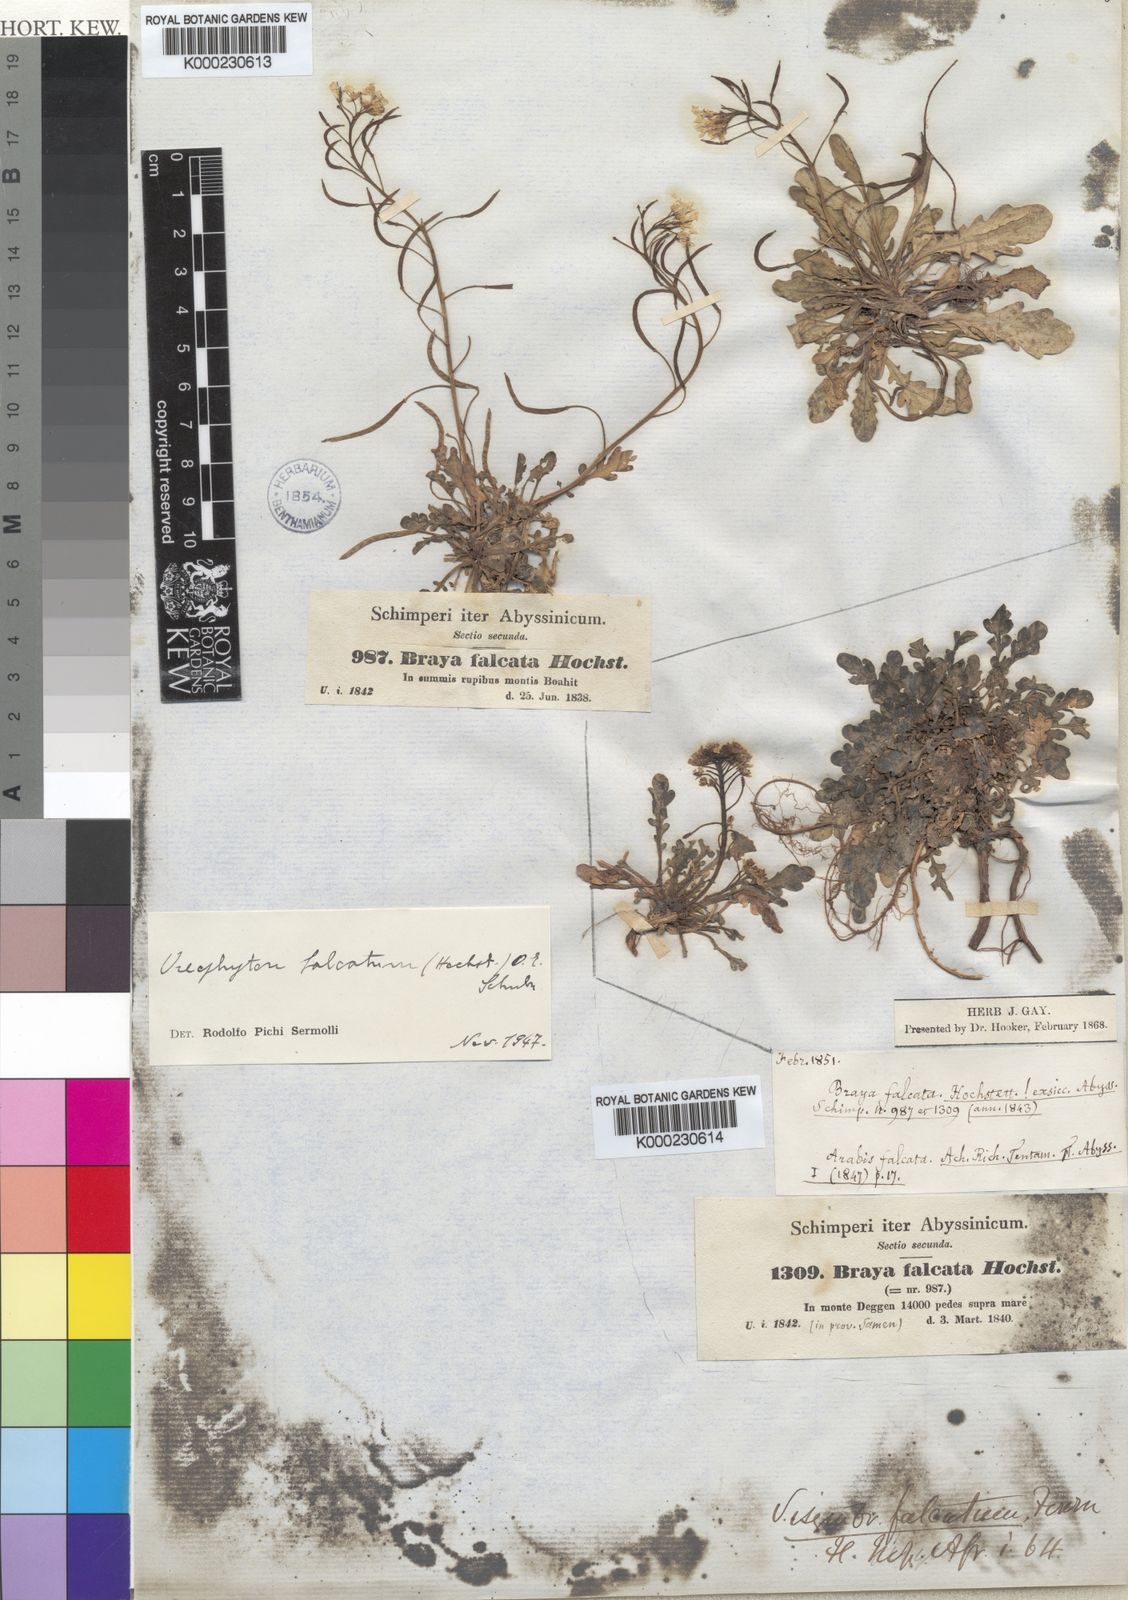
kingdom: Plantae
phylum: Tracheophyta
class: Magnoliopsida
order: Brassicales
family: Brassicaceae
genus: Oreophyton
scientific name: Oreophyton falcatum
